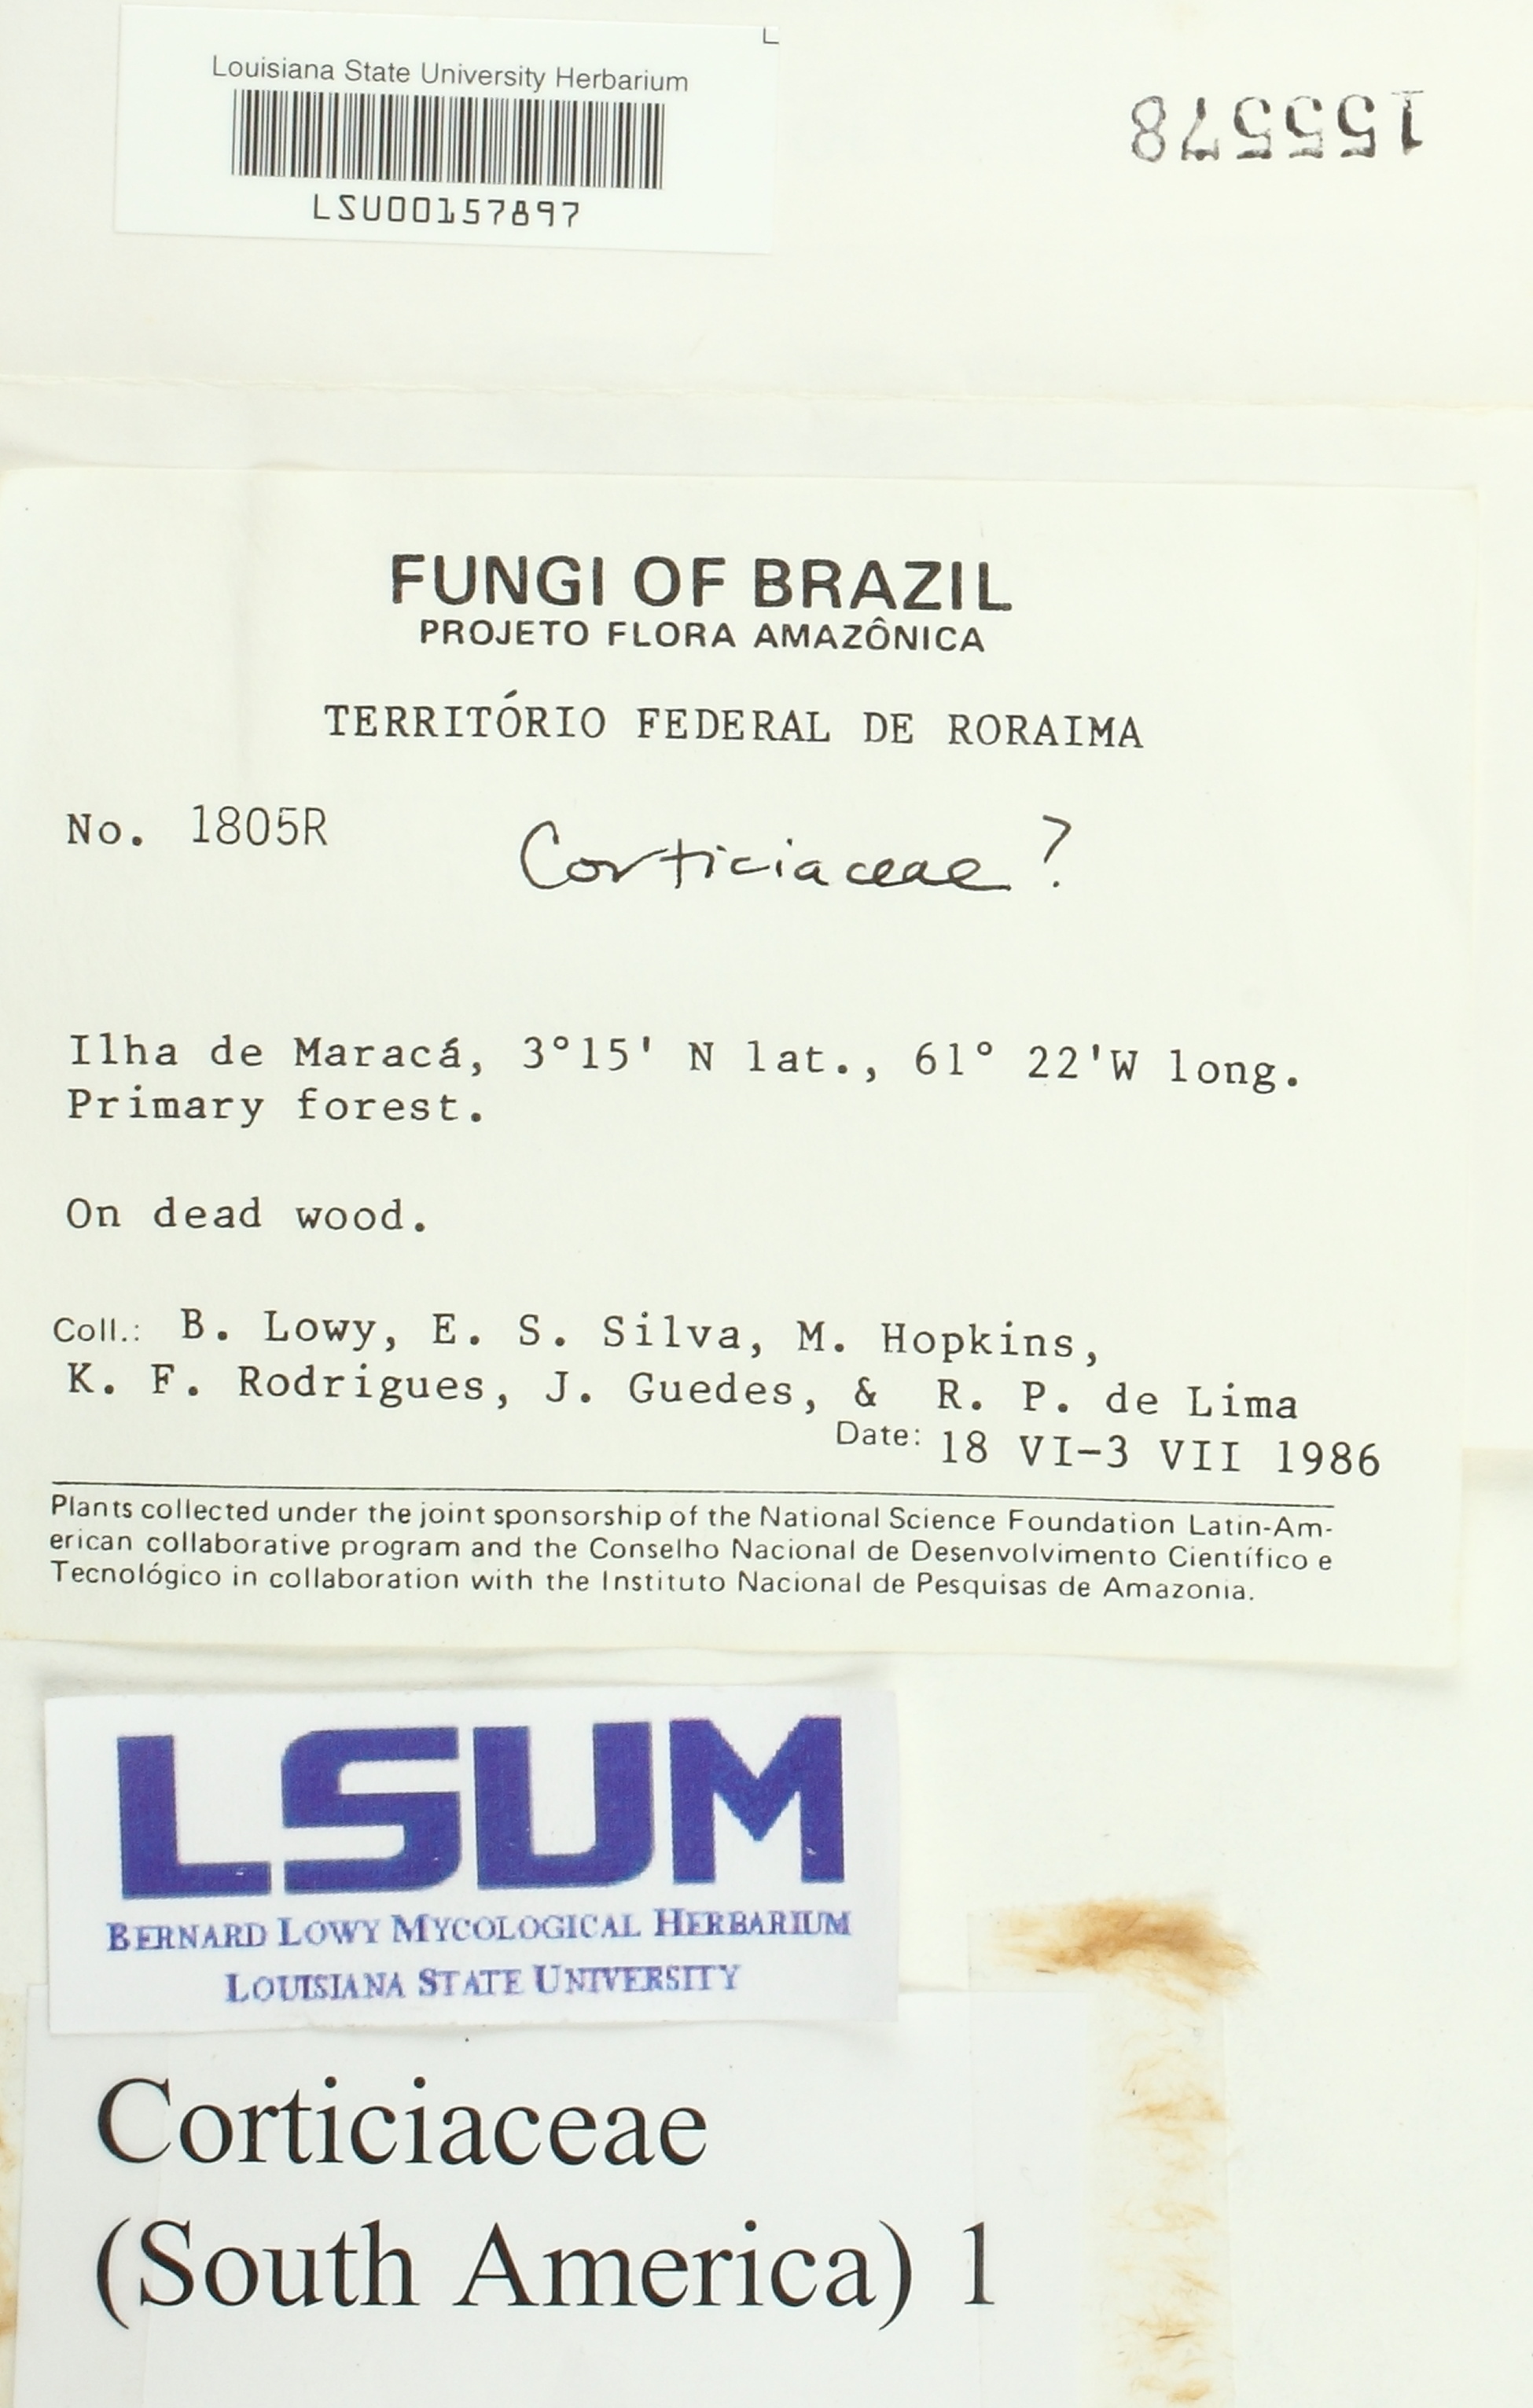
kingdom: Fungi
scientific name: Fungi
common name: Fungi
